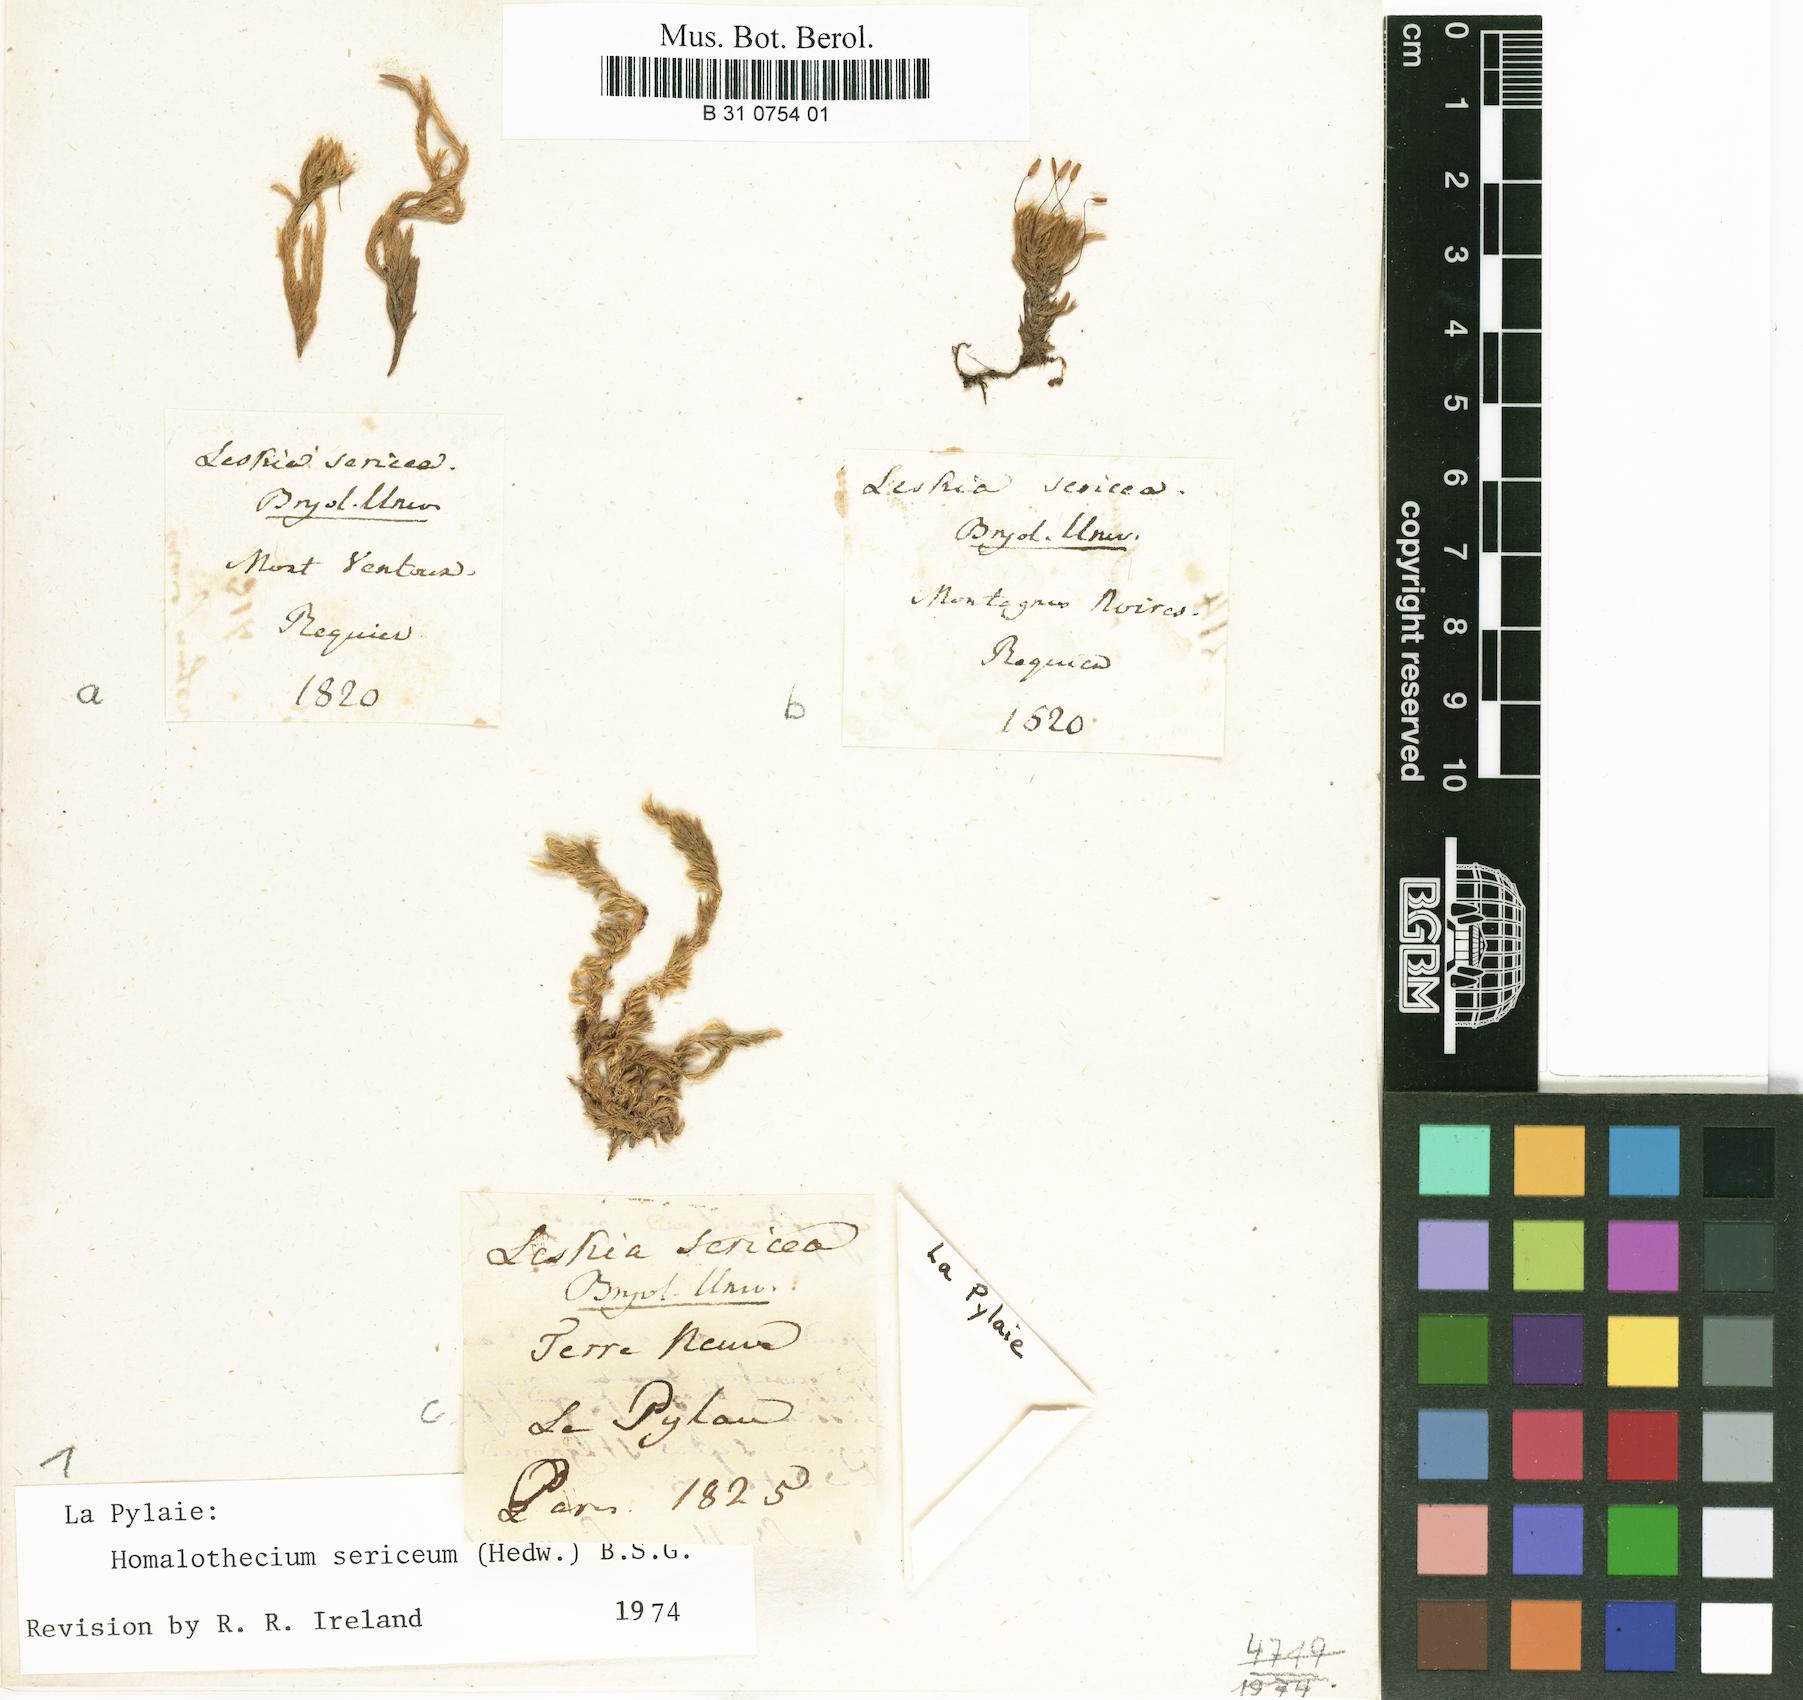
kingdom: Plantae
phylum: Bryophyta
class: Bryopsida
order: Hypnales
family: Brachytheciaceae
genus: Homalothecium
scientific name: Homalothecium sericeum
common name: Silky wall feather-moss
